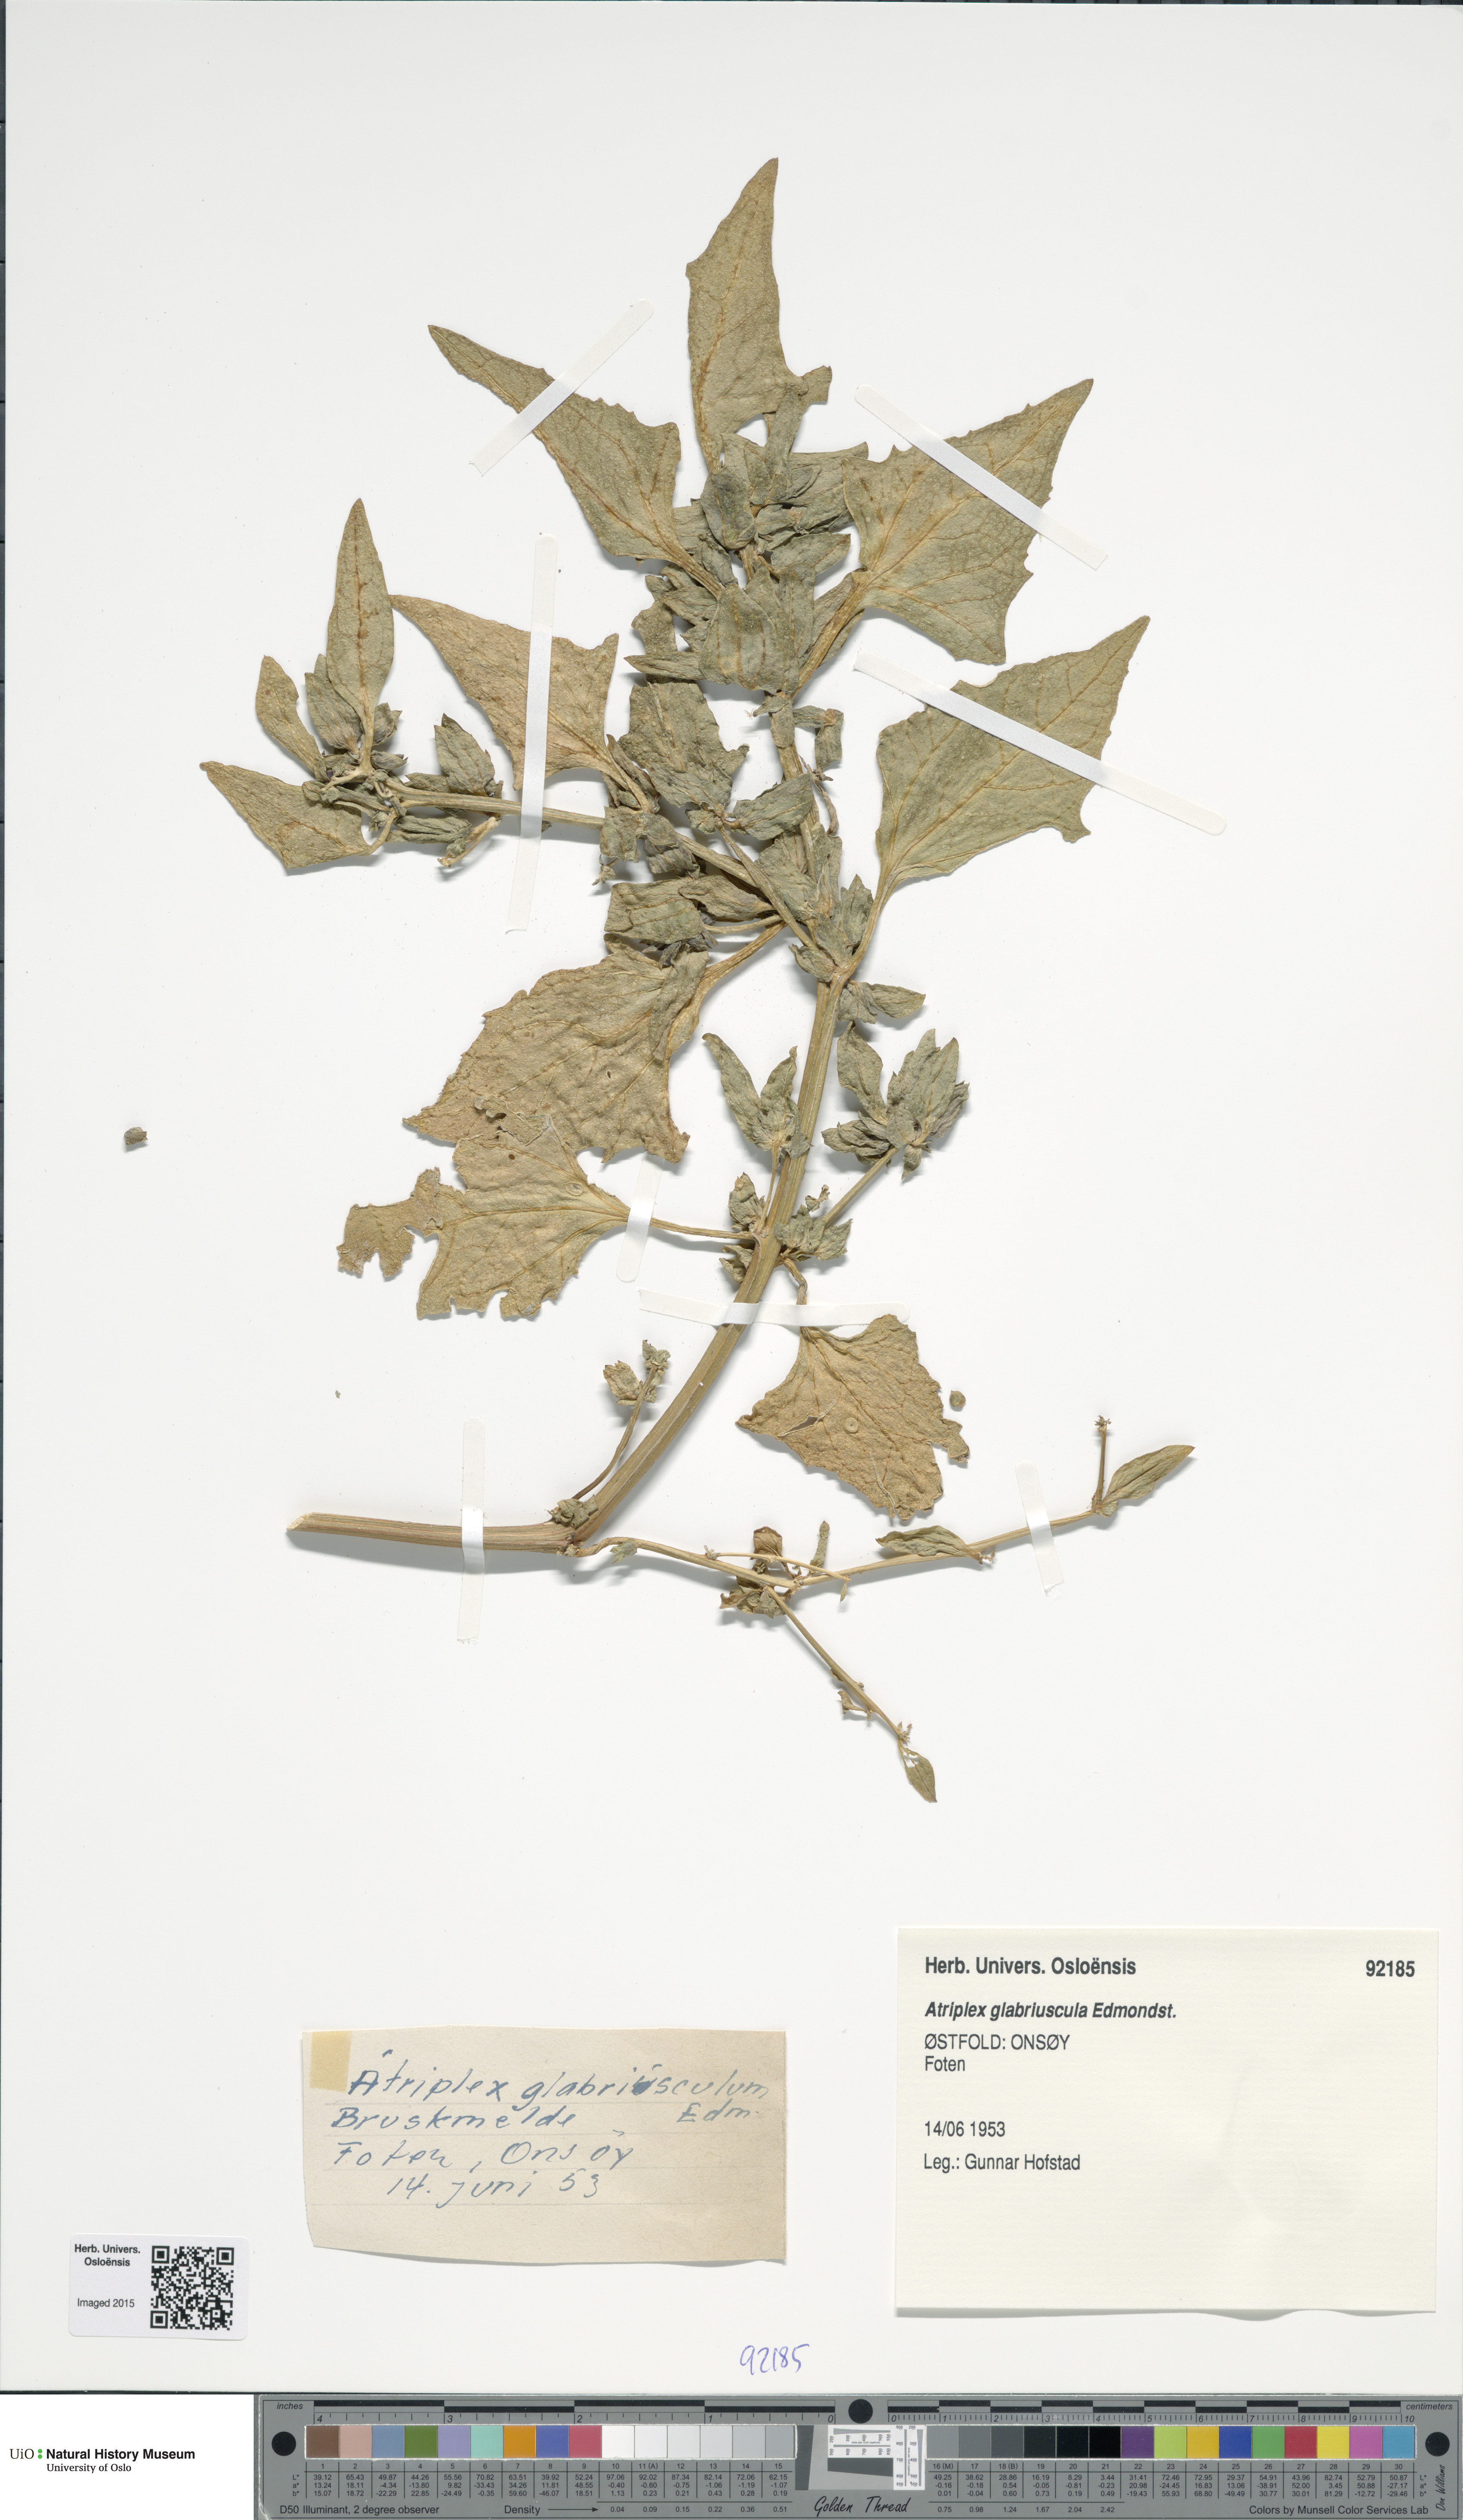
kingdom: Plantae
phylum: Tracheophyta
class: Magnoliopsida
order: Caryophyllales
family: Amaranthaceae
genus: Atriplex
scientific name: Atriplex glabriuscula
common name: Babington's orache
